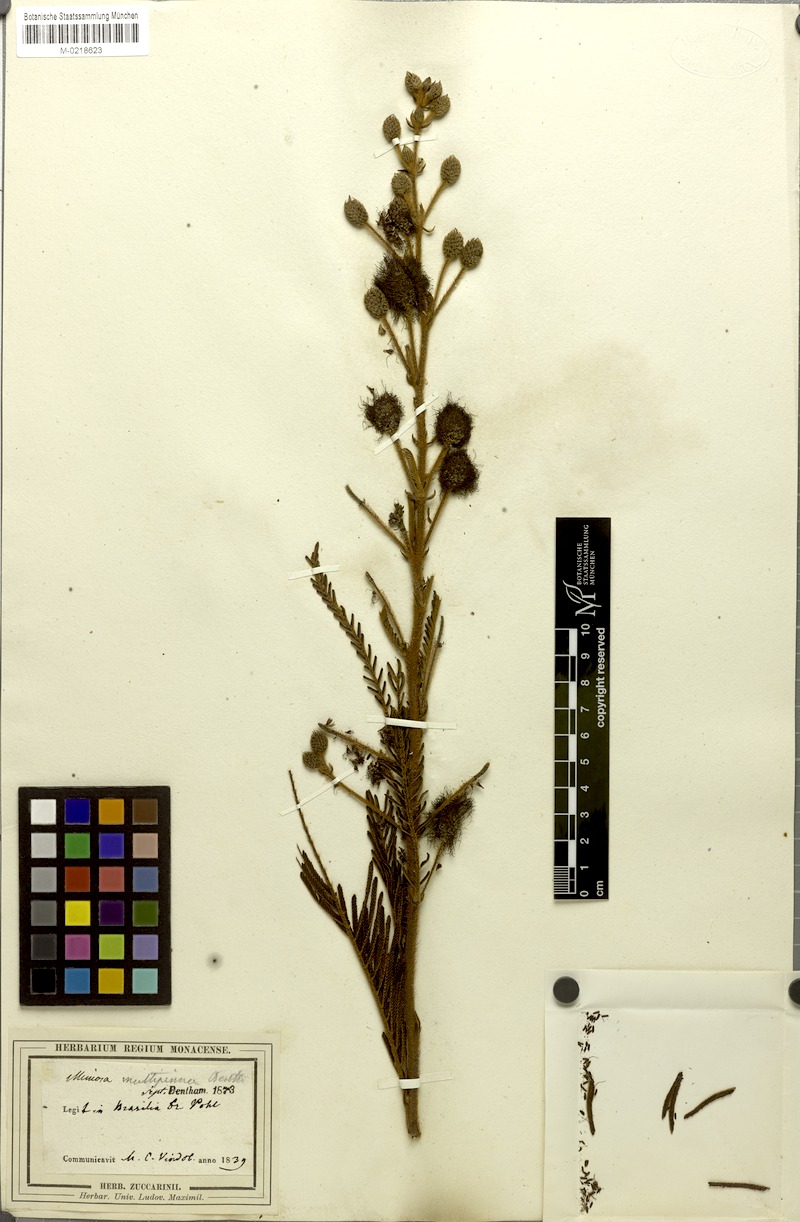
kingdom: Plantae
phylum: Tracheophyta
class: Magnoliopsida
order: Fabales
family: Fabaceae
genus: Mimosa
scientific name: Mimosa foliolosa
